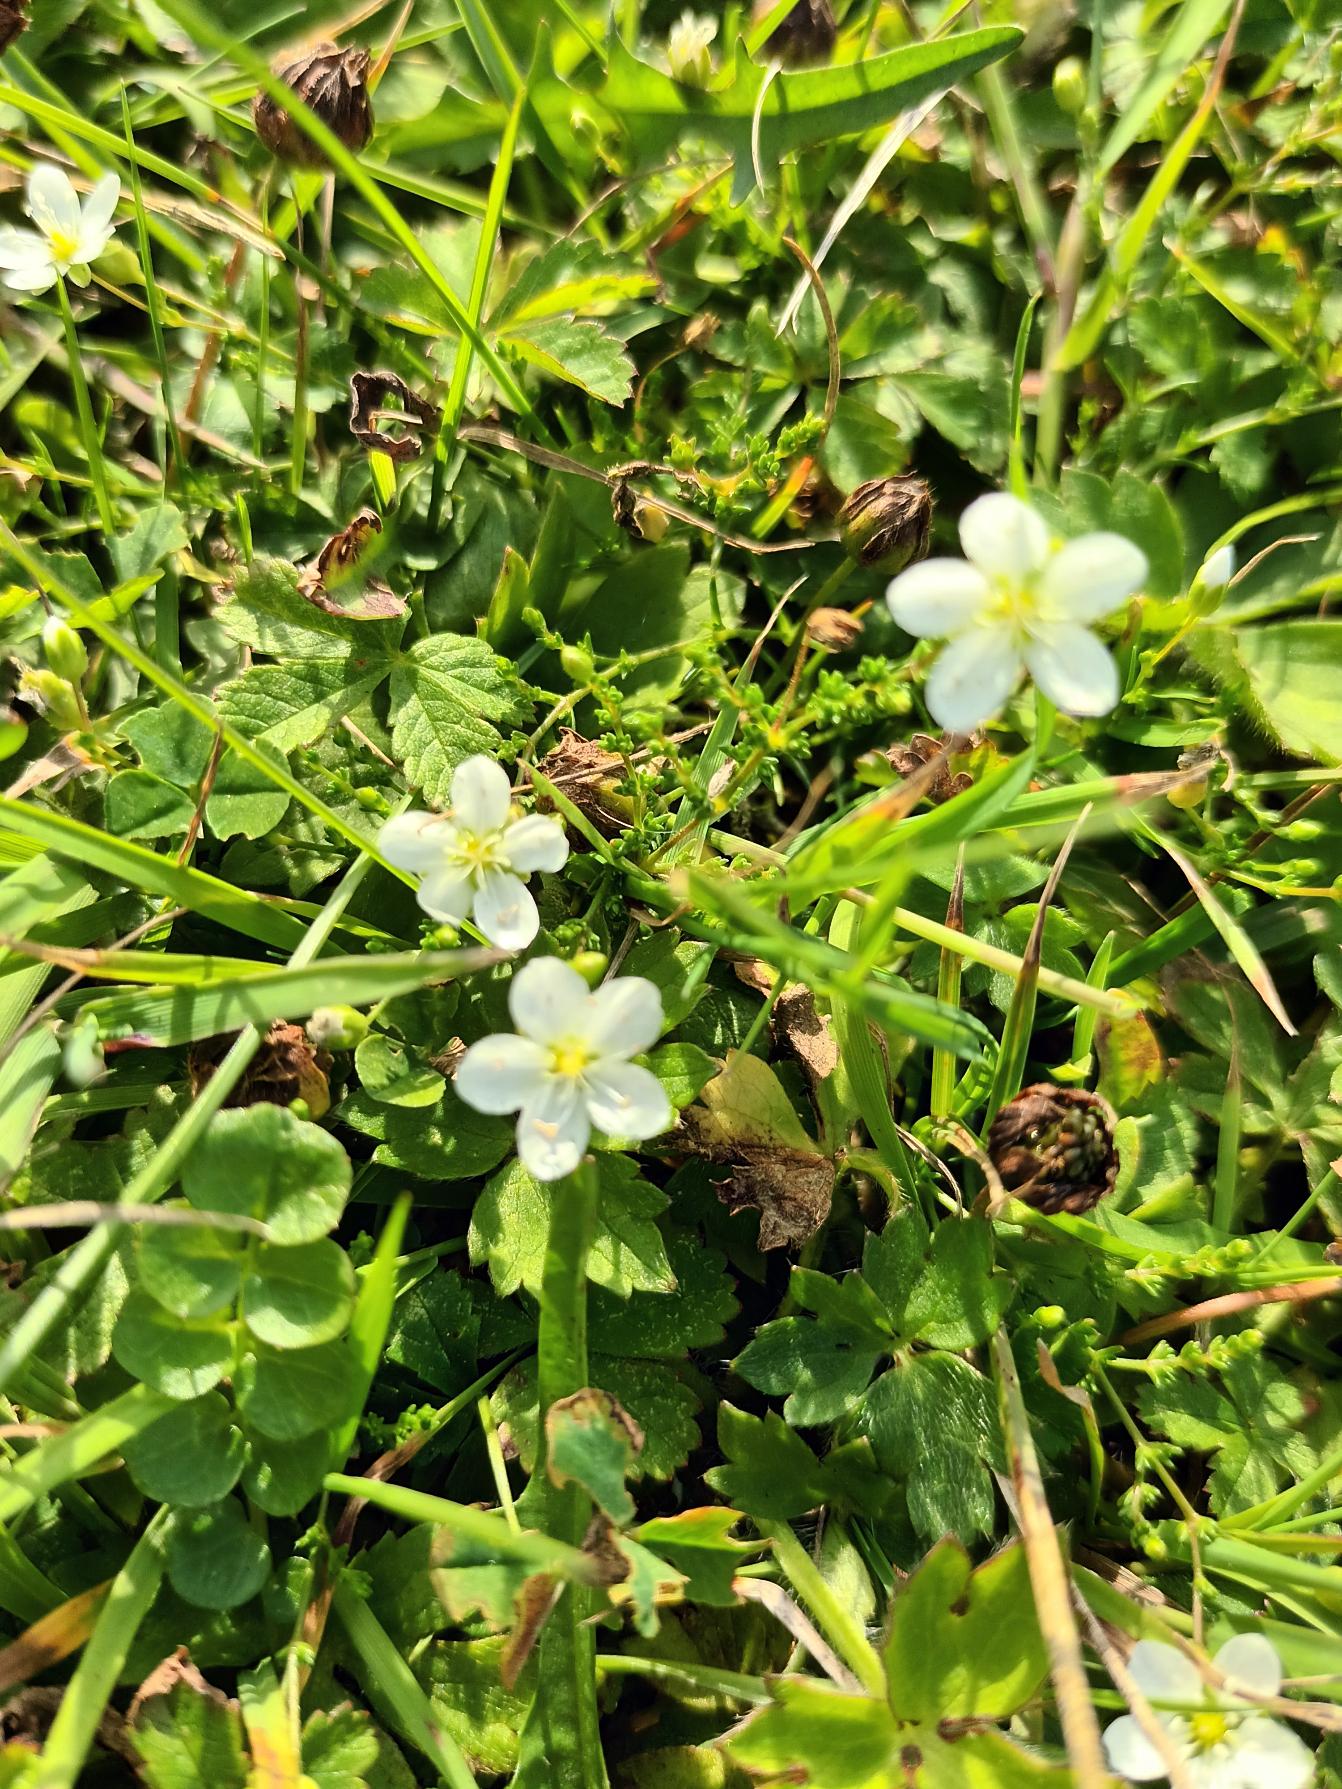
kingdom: Plantae
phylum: Tracheophyta
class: Magnoliopsida
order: Caryophyllales
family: Caryophyllaceae
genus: Sagina
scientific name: Sagina nodosa
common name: Knude-firling
